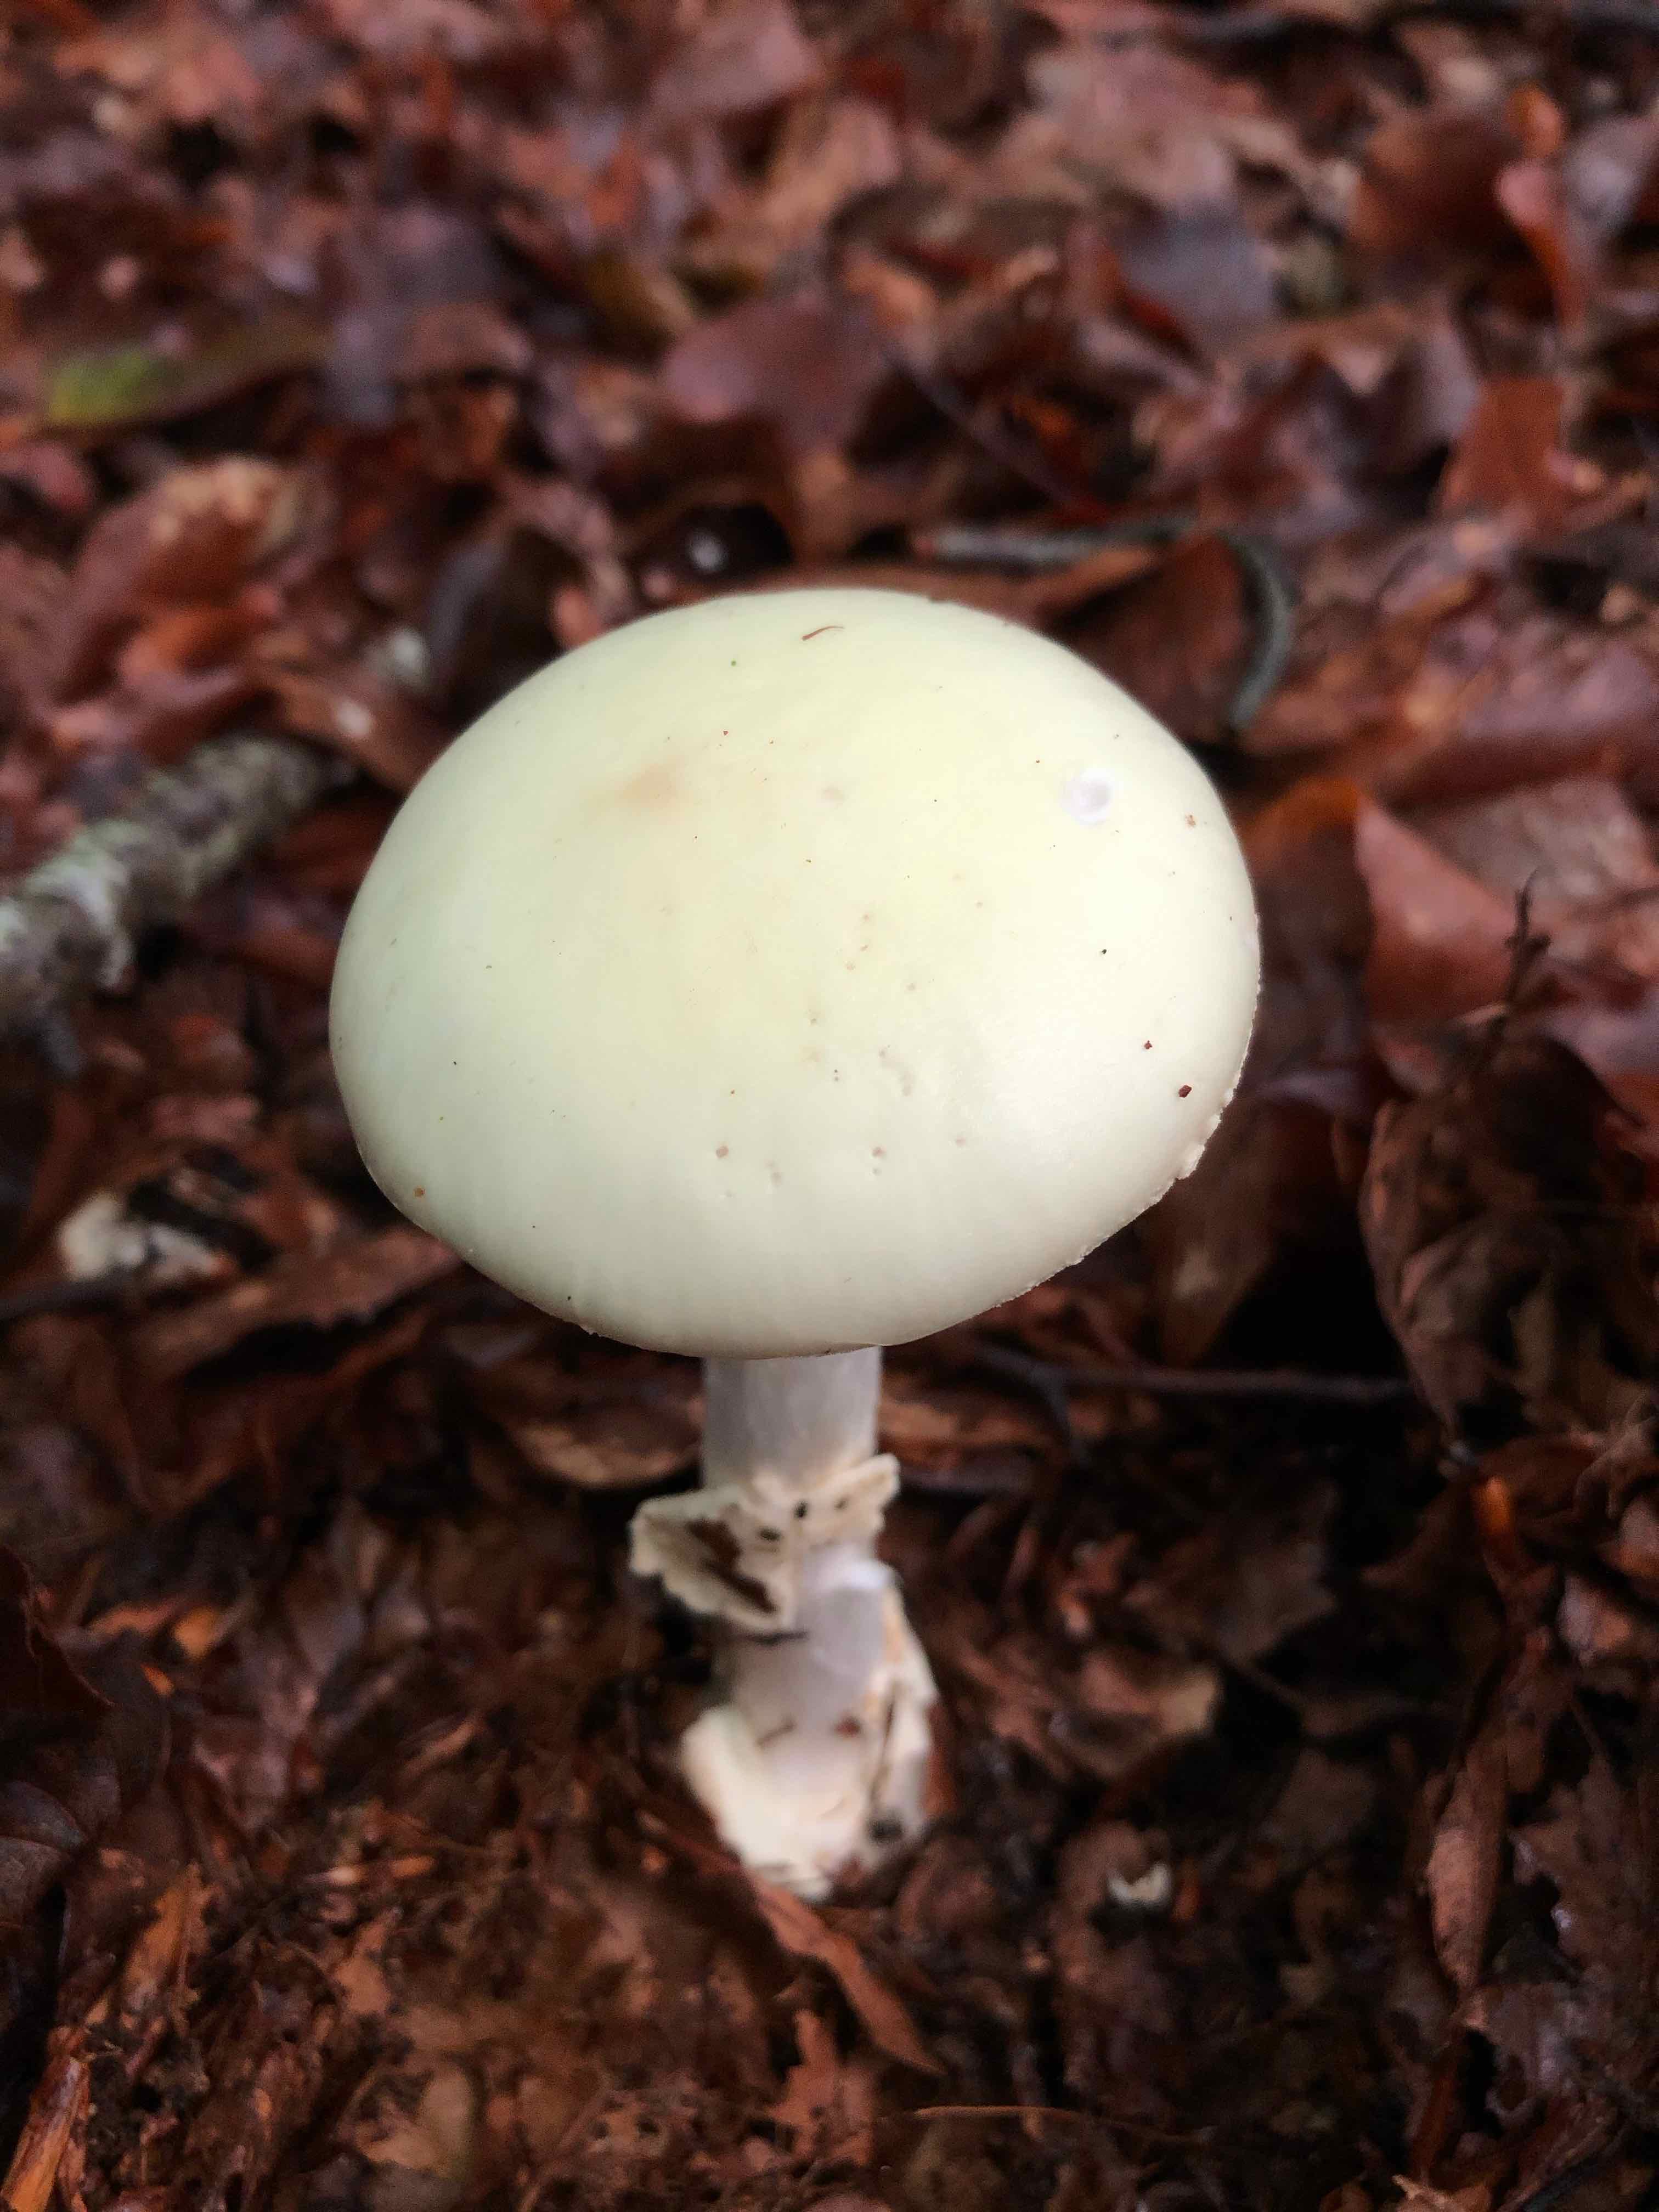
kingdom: Fungi
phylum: Basidiomycota
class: Agaricomycetes
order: Agaricales
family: Amanitaceae
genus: Amanita
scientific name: Amanita citrina
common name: kugleknoldet fluesvamp
